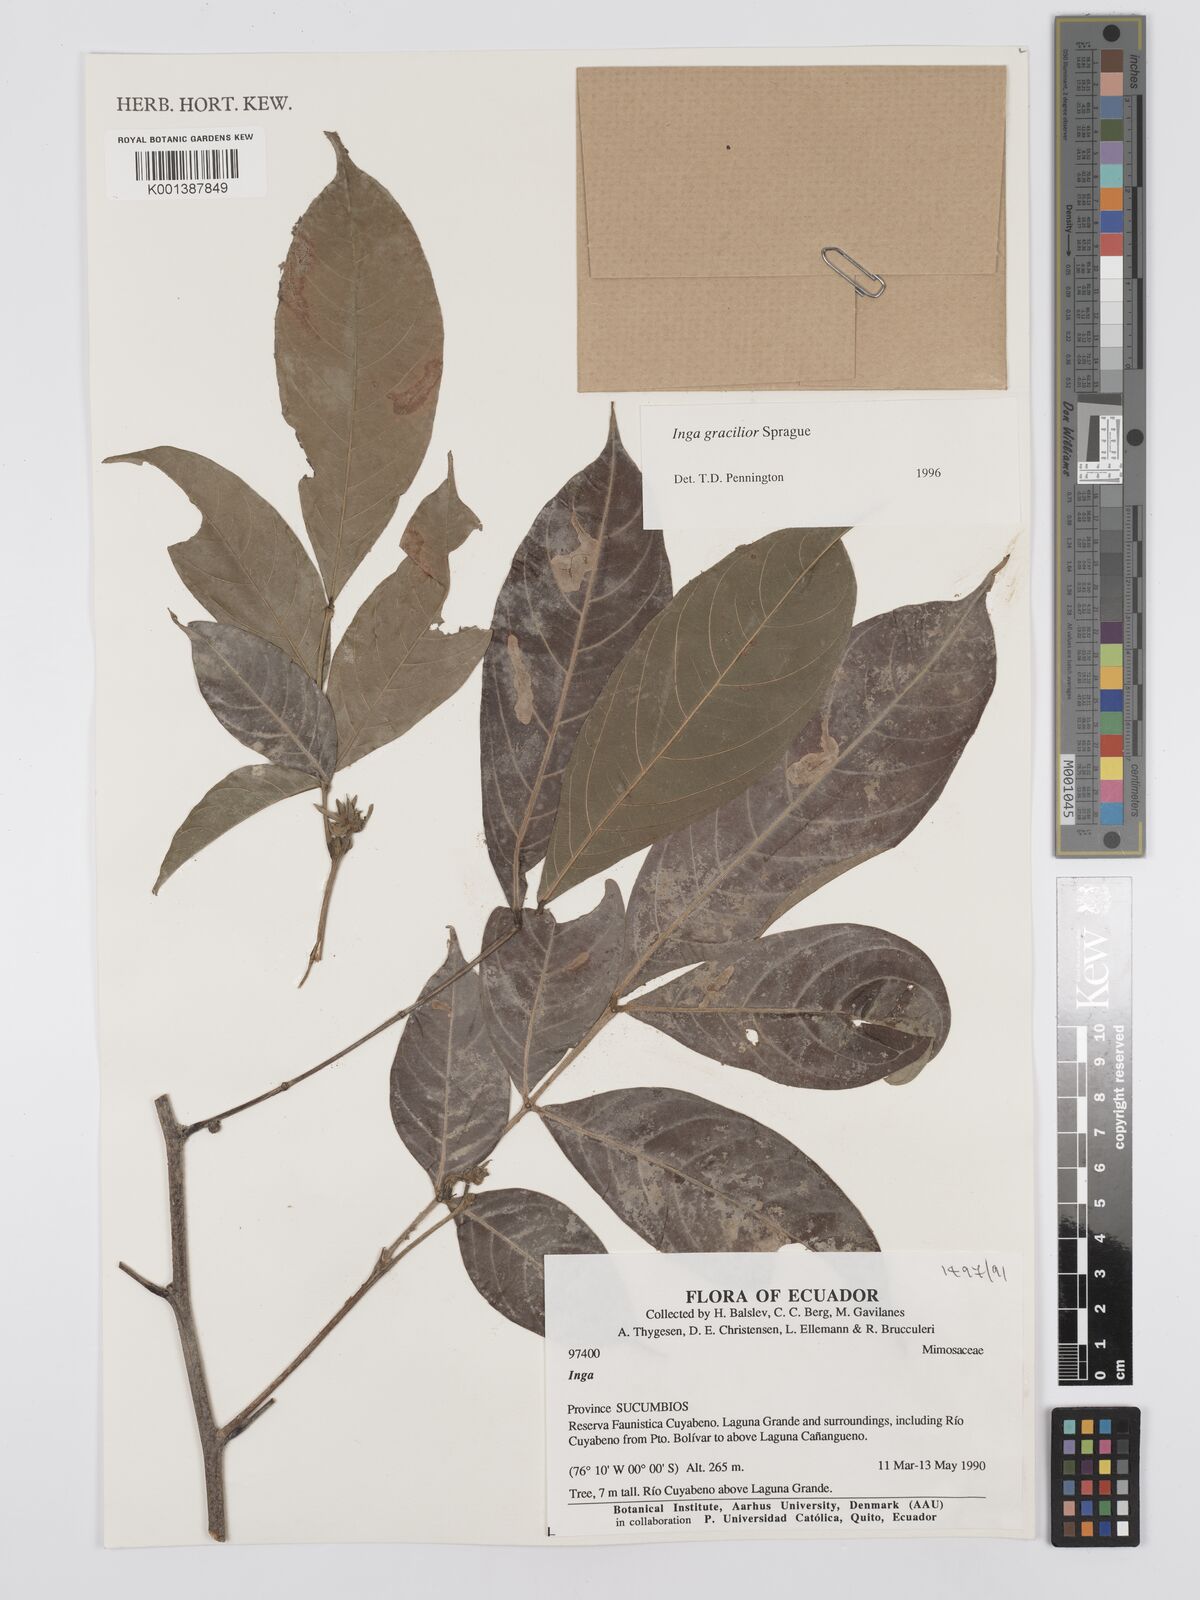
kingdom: Plantae
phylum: Tracheophyta
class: Magnoliopsida
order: Fabales
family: Fabaceae
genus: Inga
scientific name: Inga gracilior
